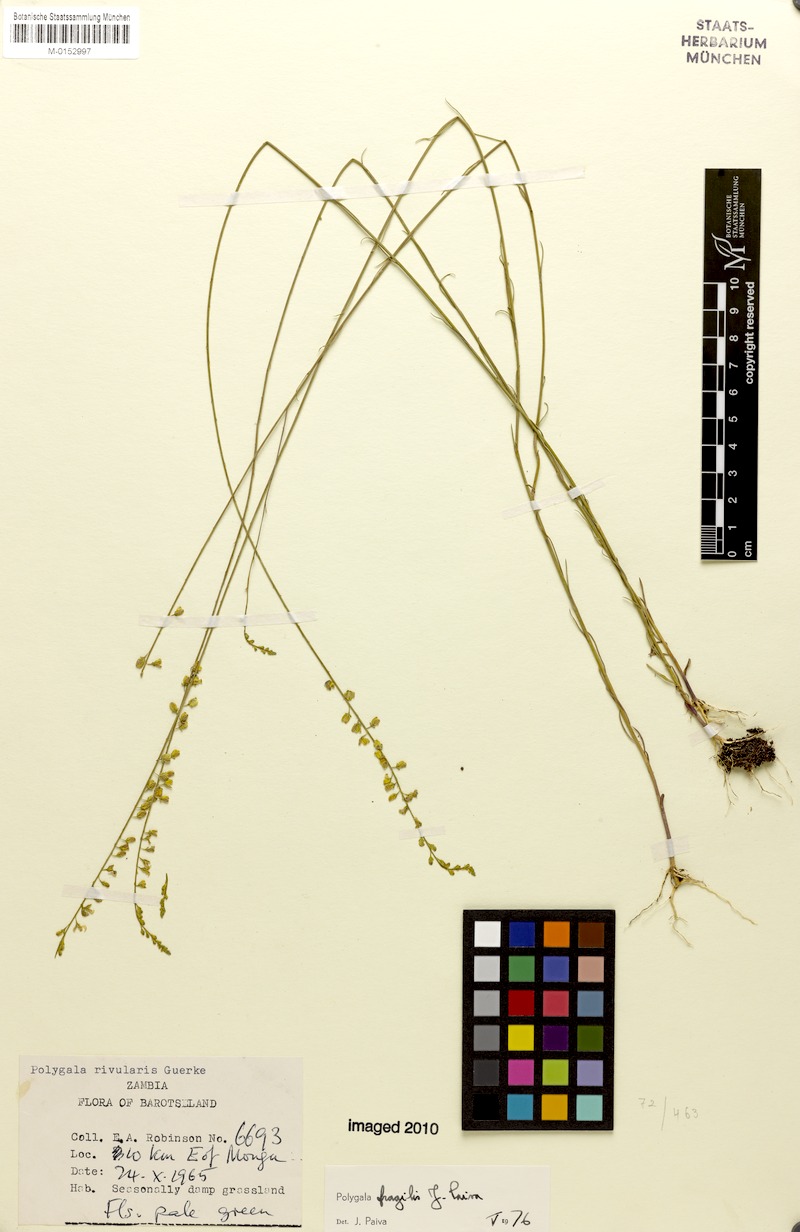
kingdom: Plantae
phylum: Tracheophyta
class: Magnoliopsida
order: Fabales
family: Polygalaceae
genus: Polygala
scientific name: Polygala fragilis
